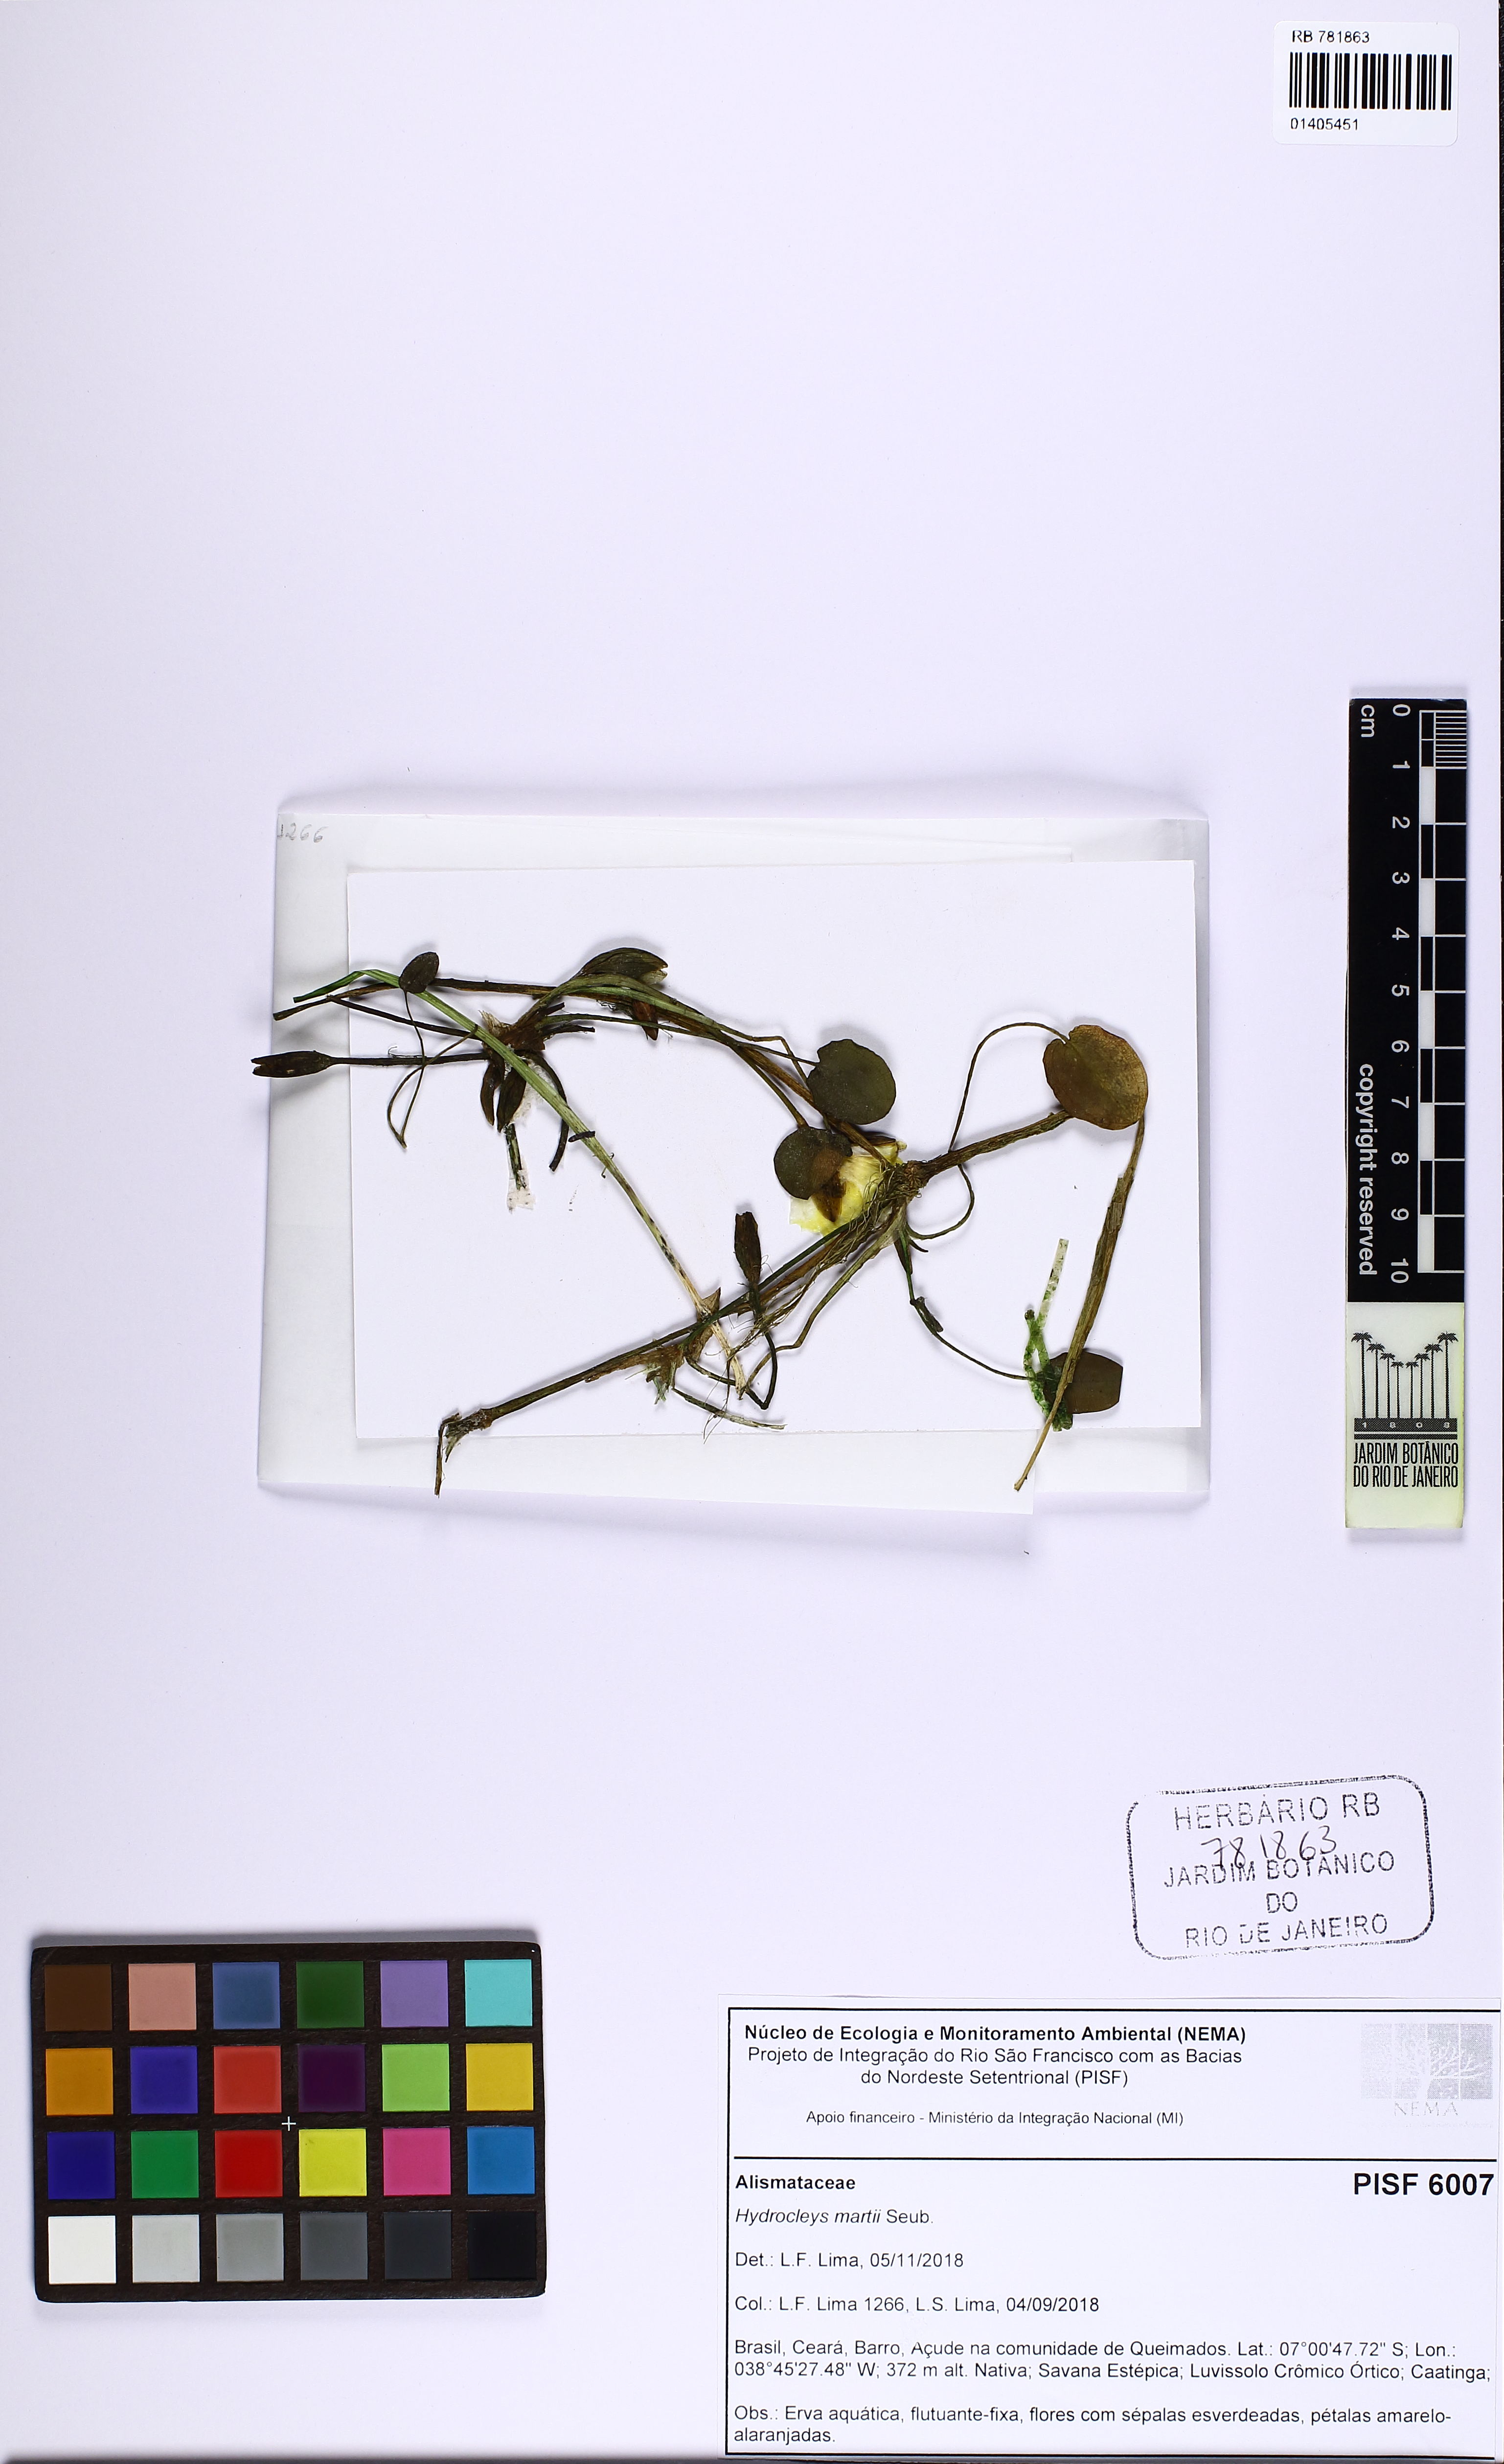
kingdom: Plantae
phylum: Tracheophyta
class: Liliopsida
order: Alismatales
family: Alismataceae
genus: Hydrocleys
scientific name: Hydrocleys martii
